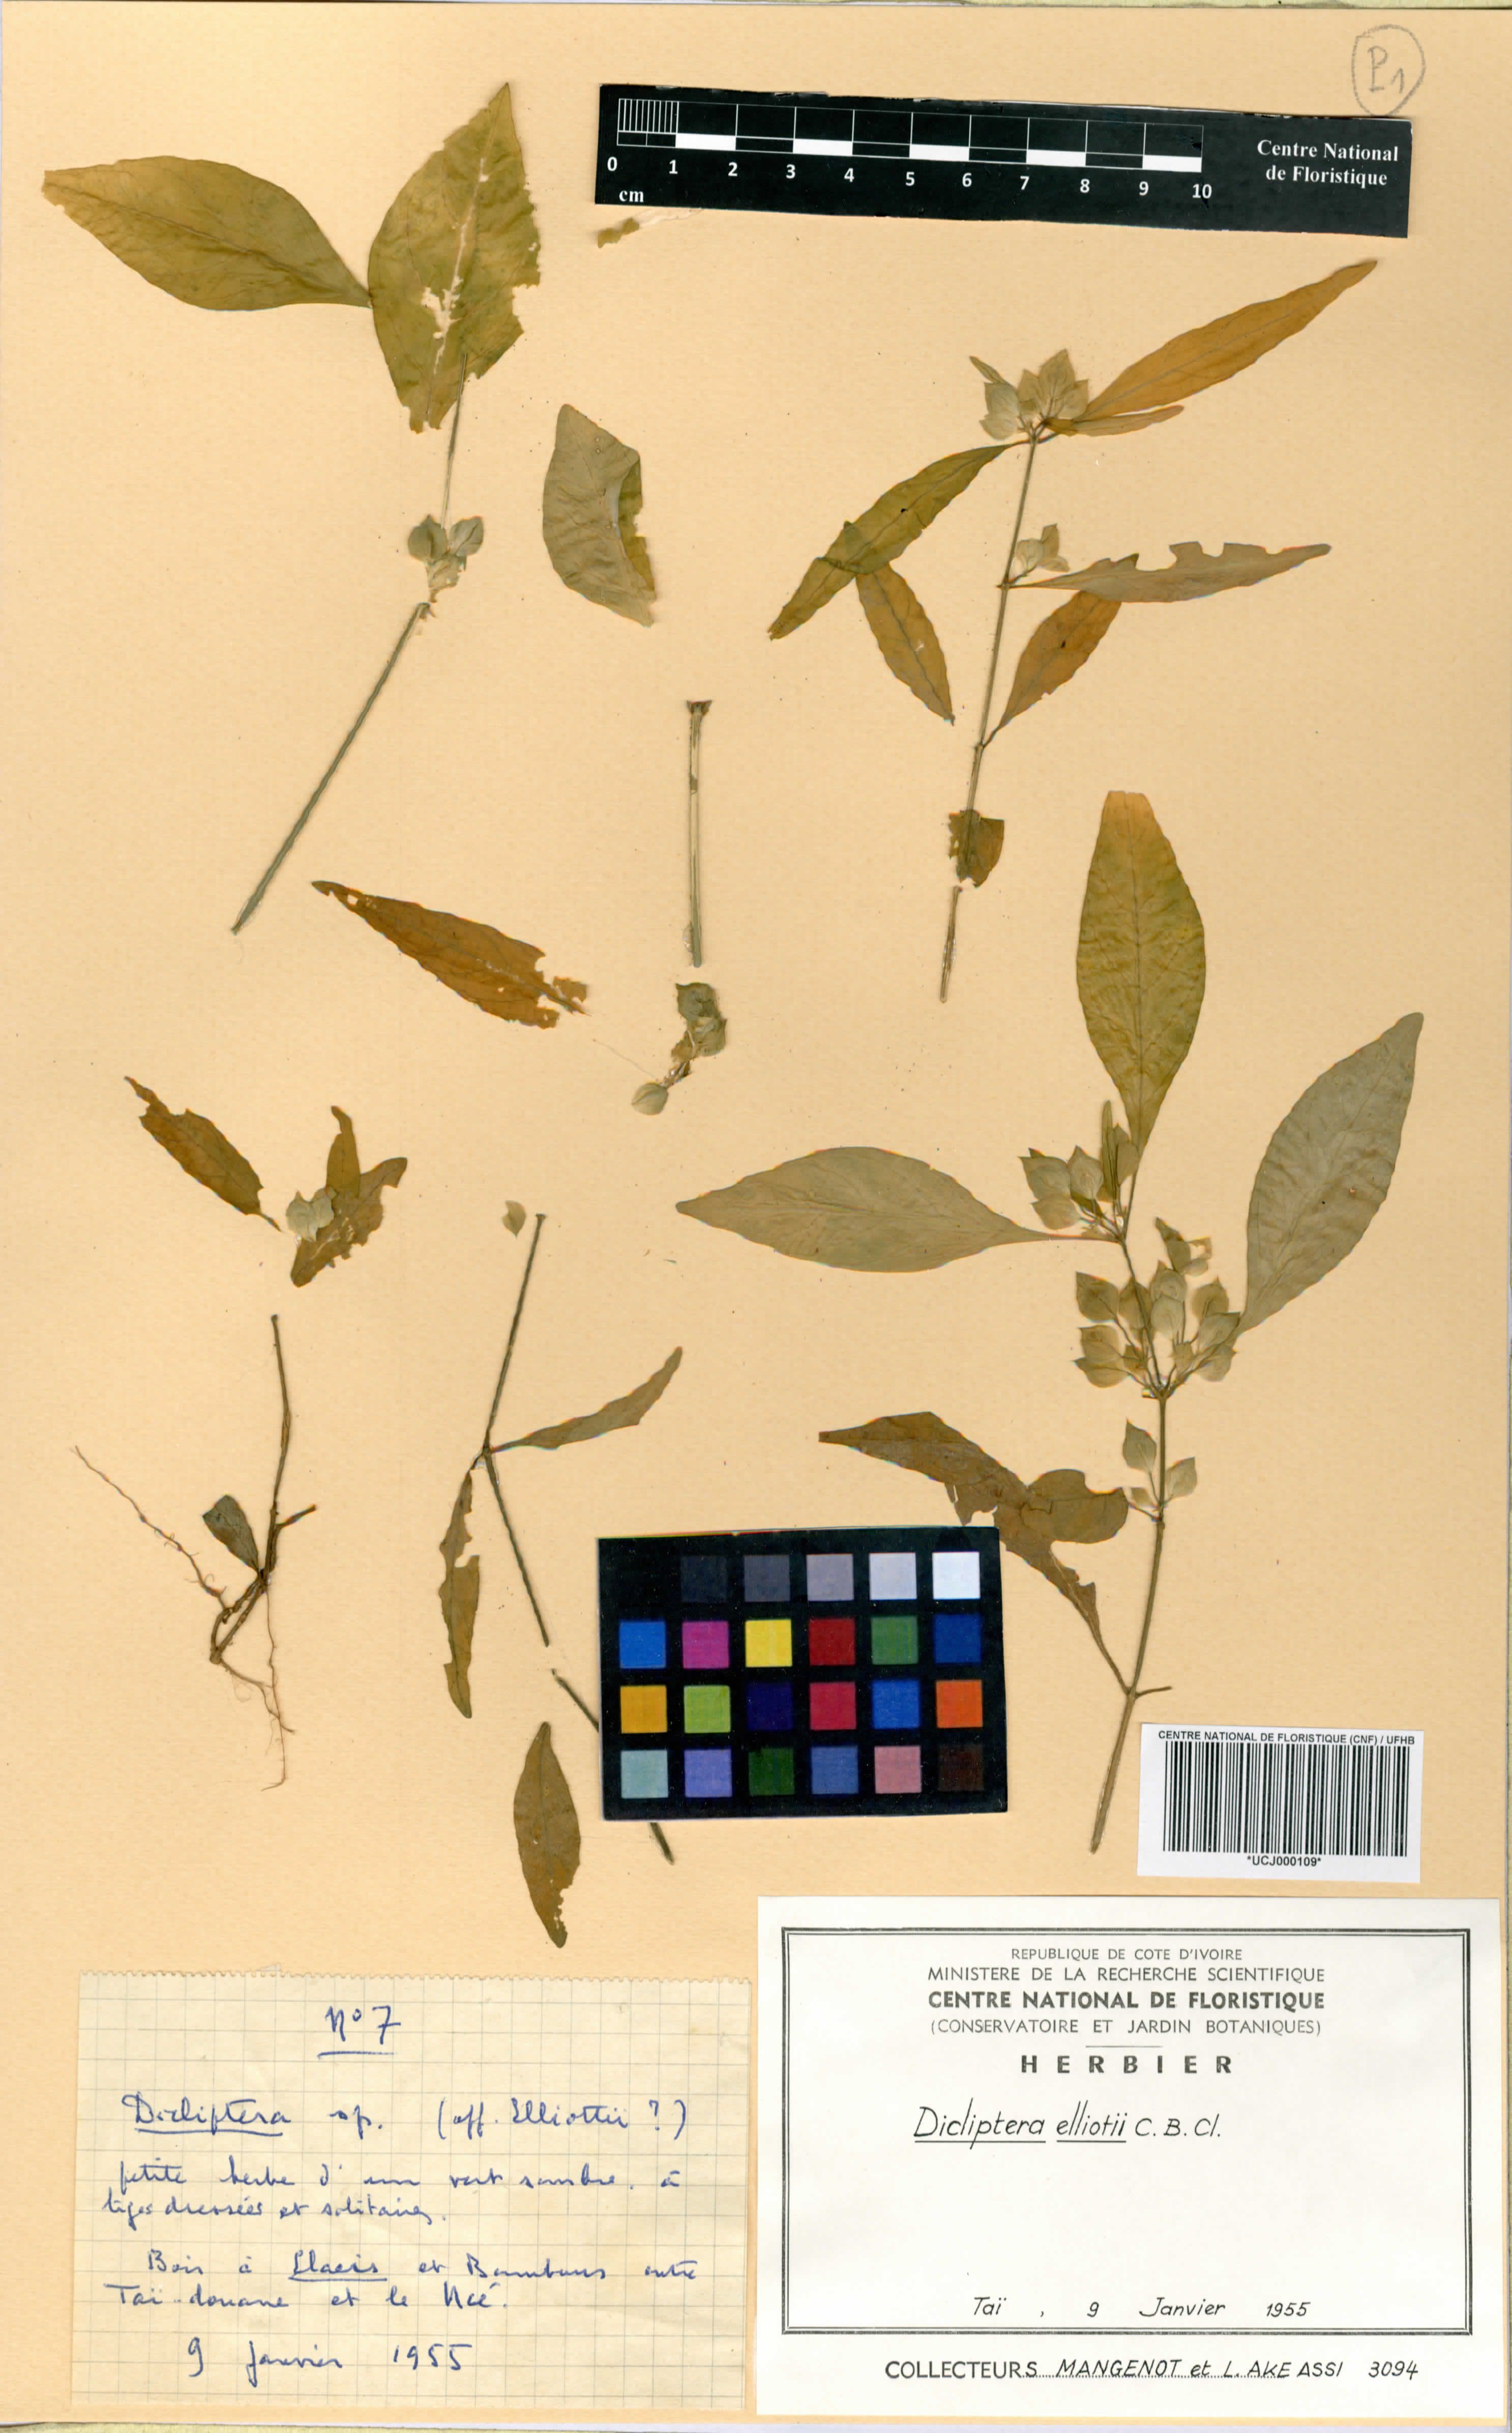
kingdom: Plantae
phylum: Tracheophyta
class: Magnoliopsida
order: Lamiales
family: Acanthaceae
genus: Dicliptera
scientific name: Dicliptera elliotii
